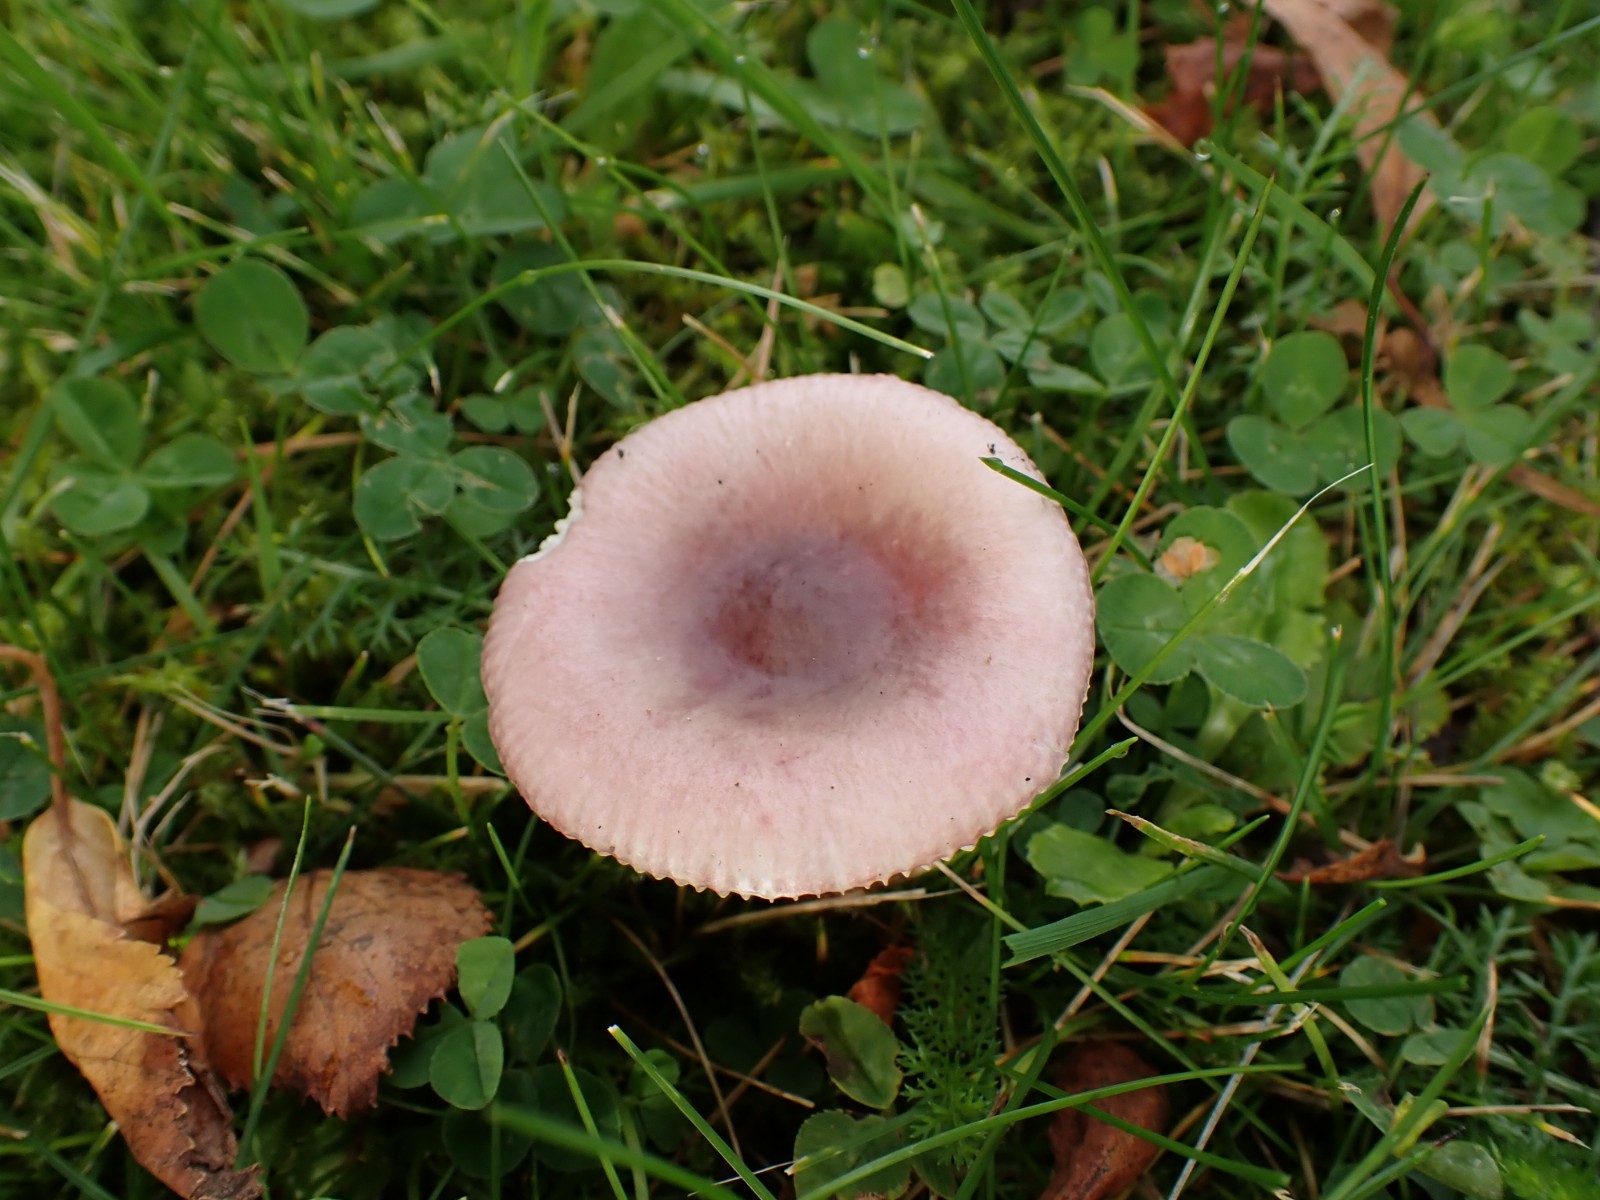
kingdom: Fungi
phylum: Basidiomycota
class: Agaricomycetes
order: Russulales
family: Russulaceae
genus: Russula
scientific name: Russula gracillima
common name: slank skørhat
